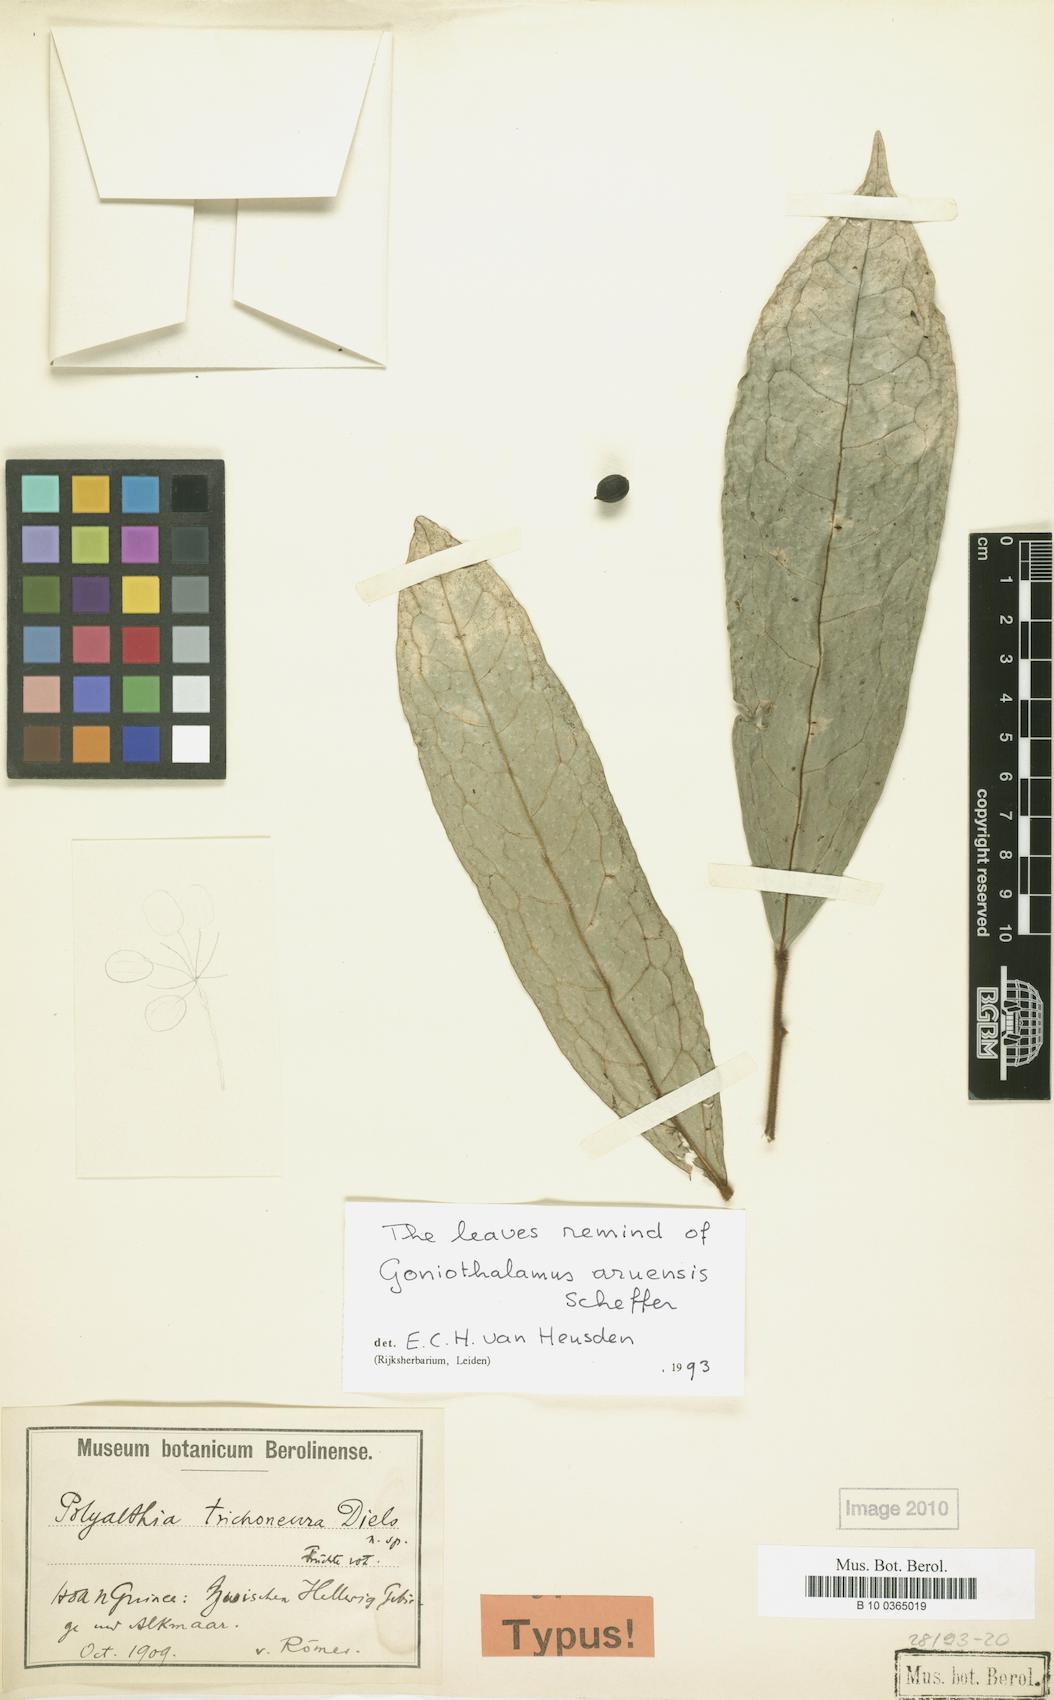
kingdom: Plantae
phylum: Tracheophyta
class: Magnoliopsida
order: Magnoliales
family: Annonaceae
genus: Hubera
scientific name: Hubera trichoneura
